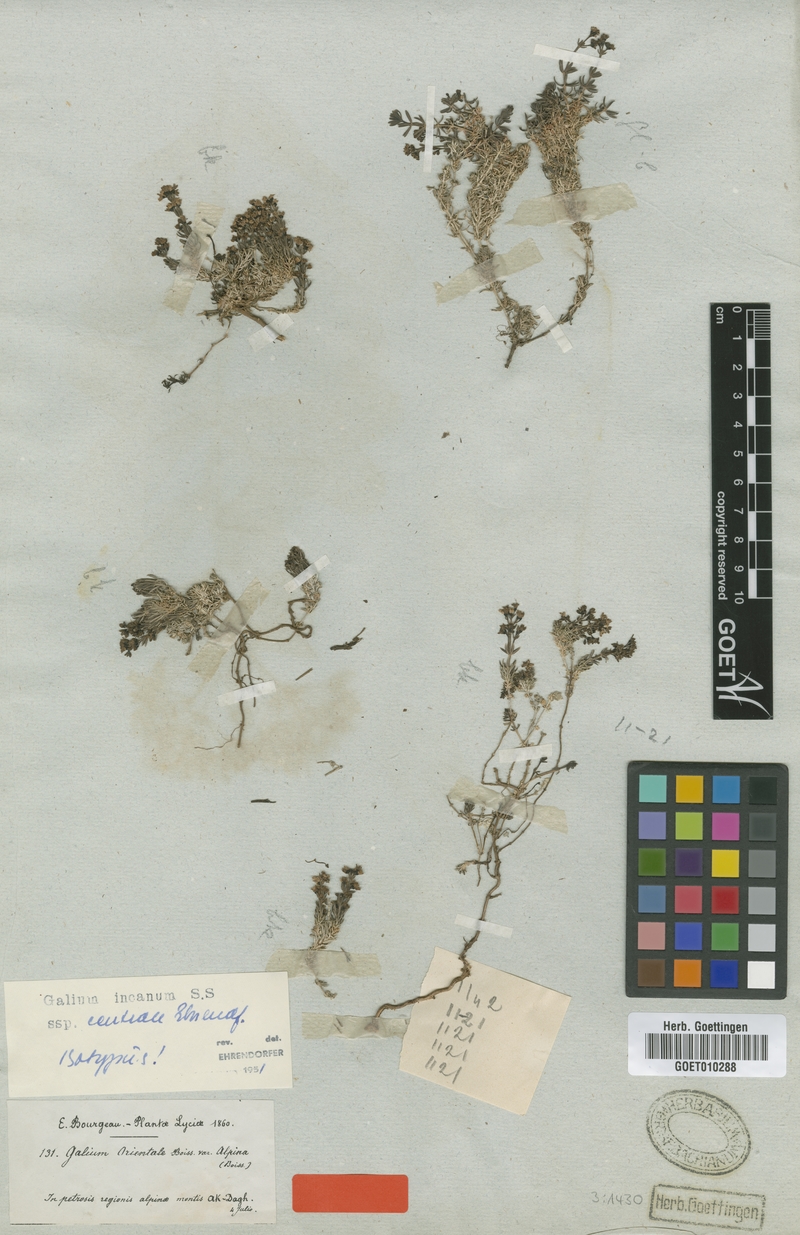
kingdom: Plantae
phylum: Tracheophyta
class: Magnoliopsida
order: Gentianales
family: Rubiaceae
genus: Galium
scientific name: Galium incanum
